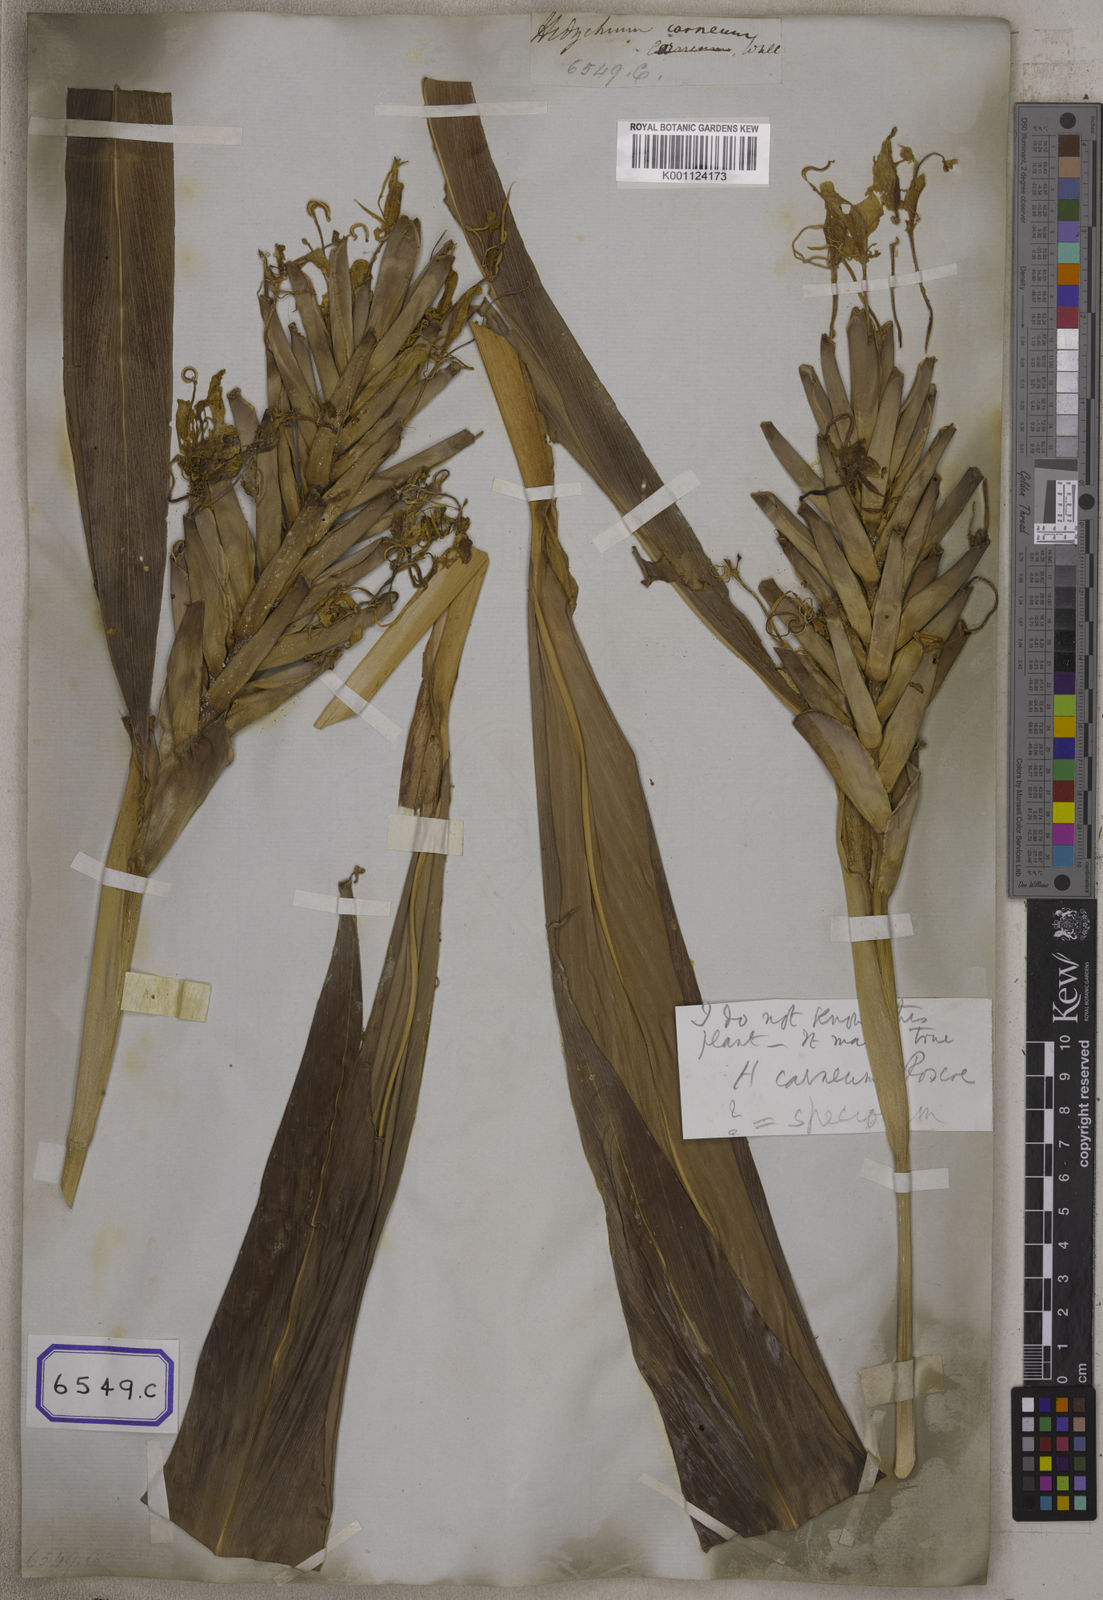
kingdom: Plantae
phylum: Tracheophyta
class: Liliopsida
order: Zingiberales
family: Zingiberaceae
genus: Hedychium
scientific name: Hedychium elatum
